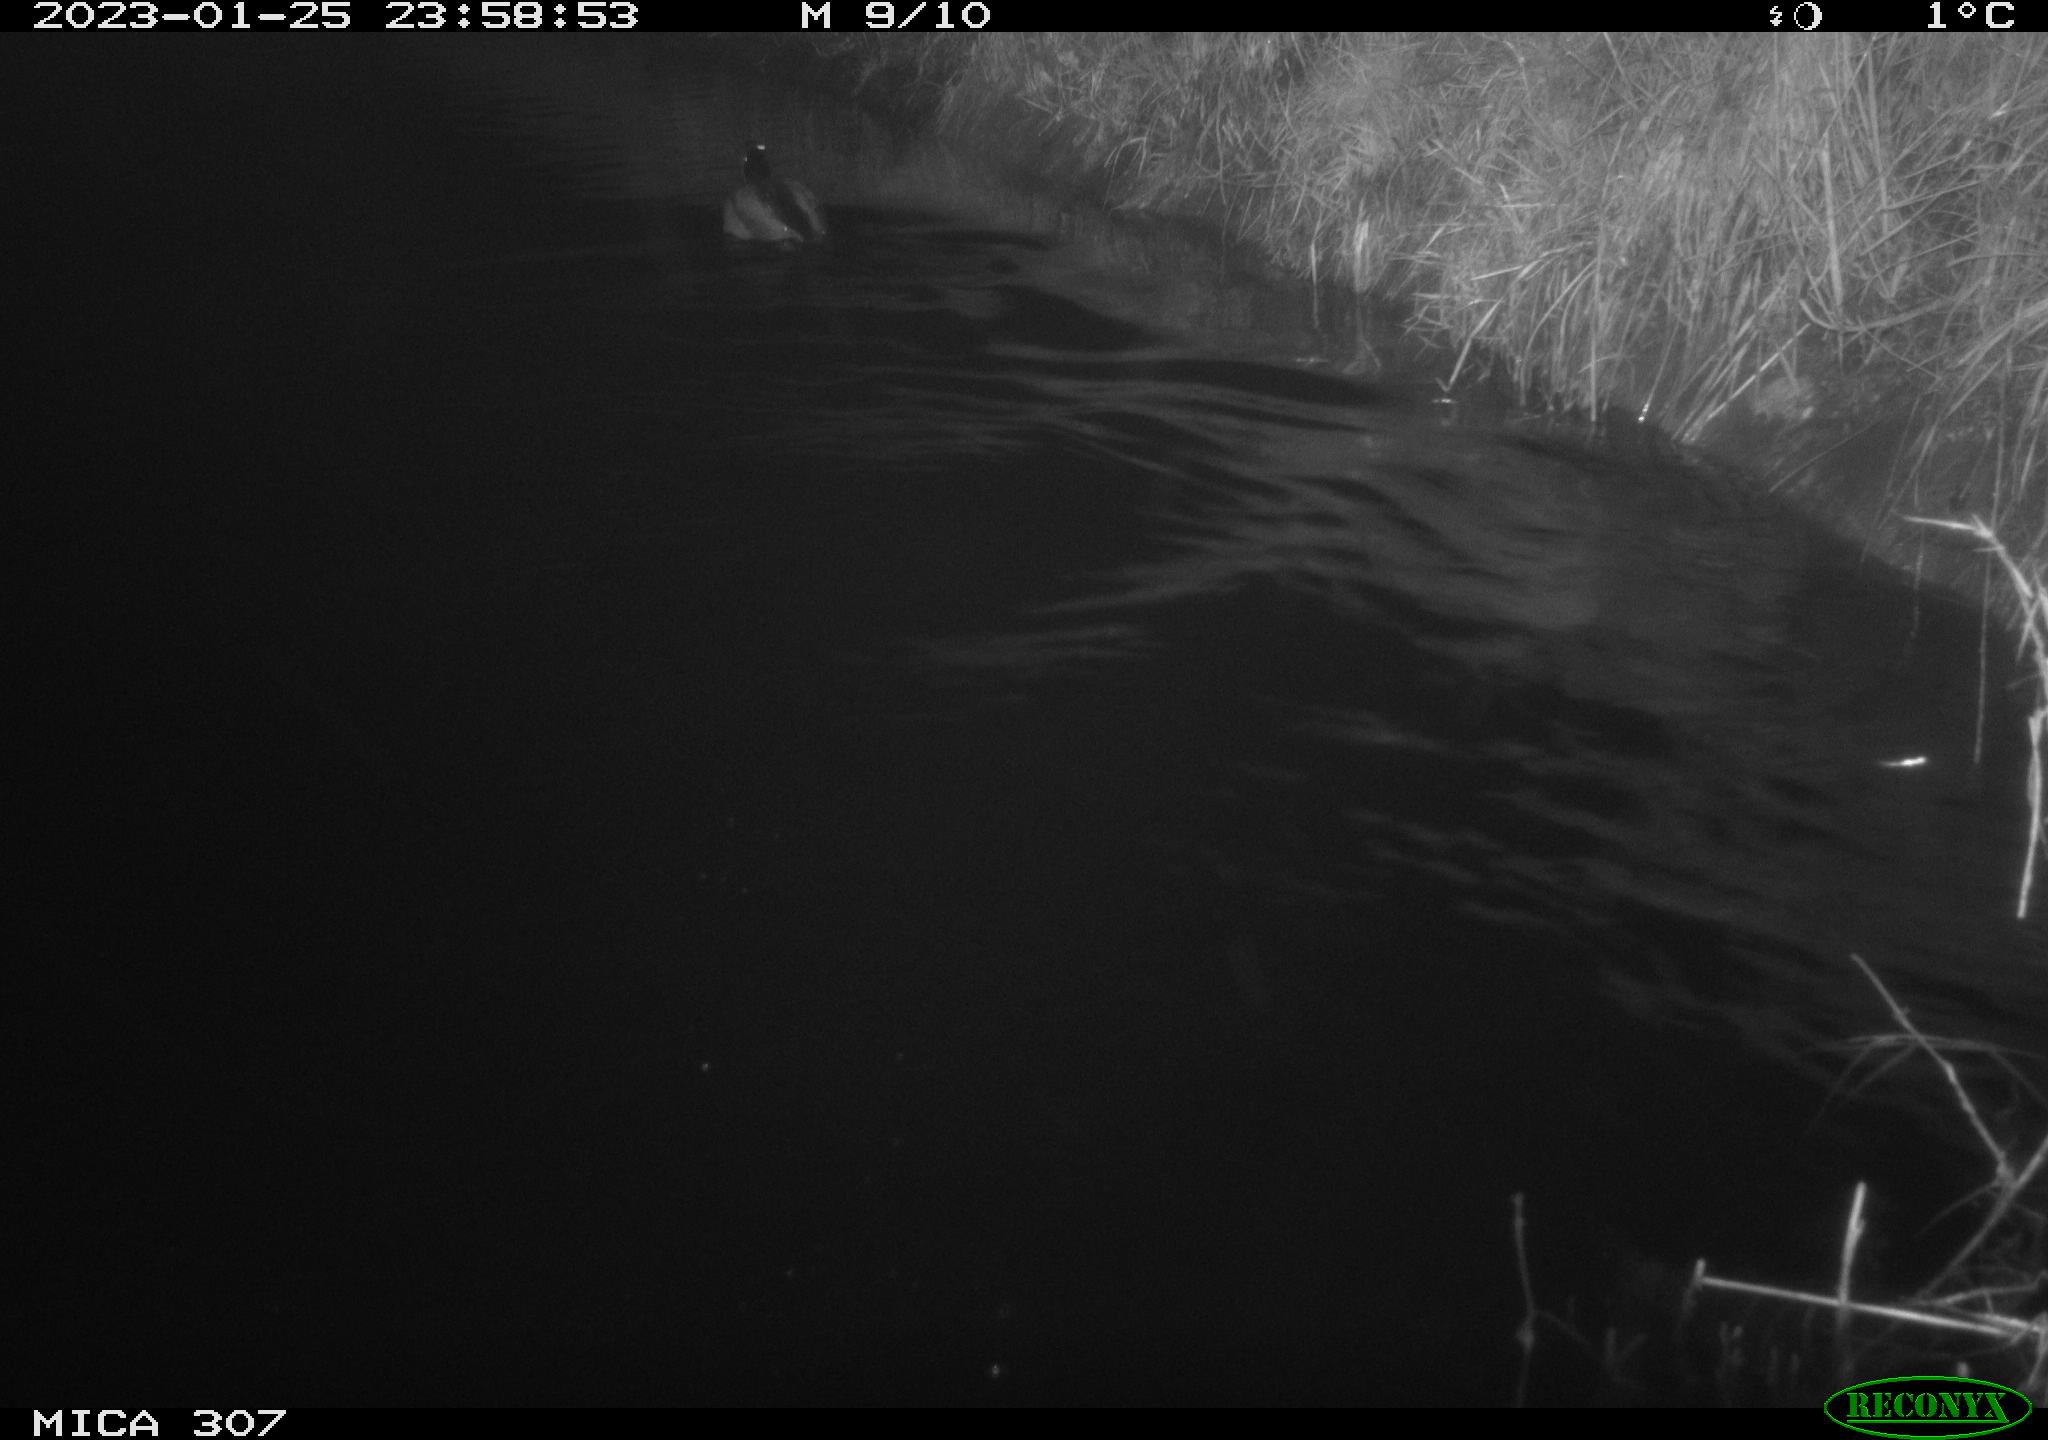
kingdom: Animalia
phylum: Chordata
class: Aves
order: Anseriformes
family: Anatidae
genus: Anas
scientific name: Anas
